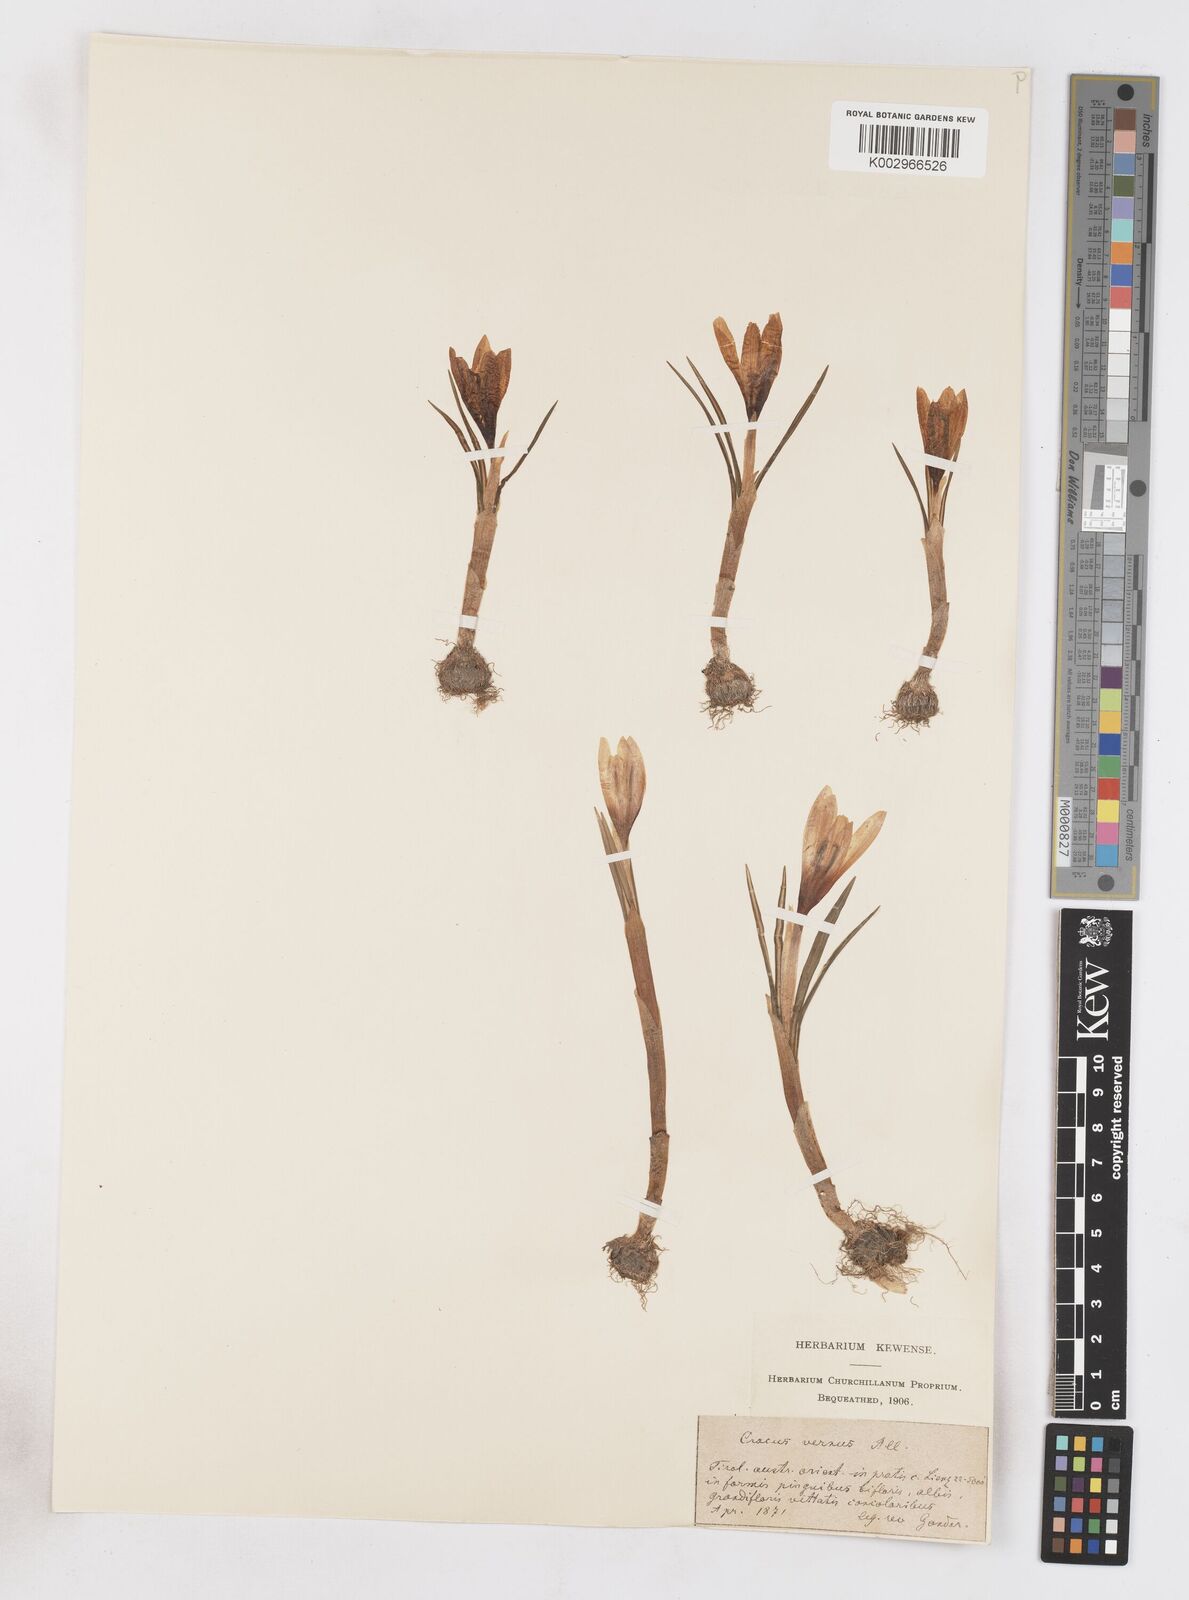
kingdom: Plantae
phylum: Tracheophyta
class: Liliopsida
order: Asparagales
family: Iridaceae
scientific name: Iridaceae
